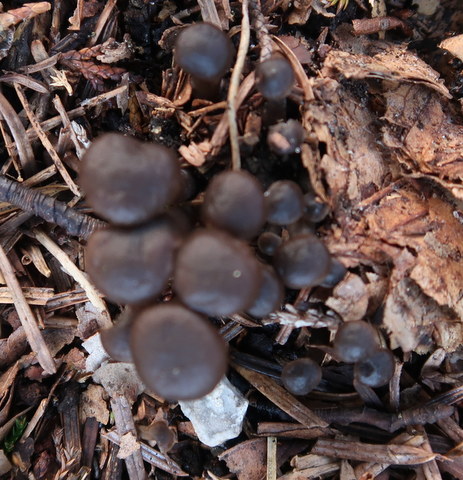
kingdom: Fungi
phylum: Basidiomycota
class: Agaricomycetes
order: Agaricales
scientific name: Agaricales
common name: champignonordenen
